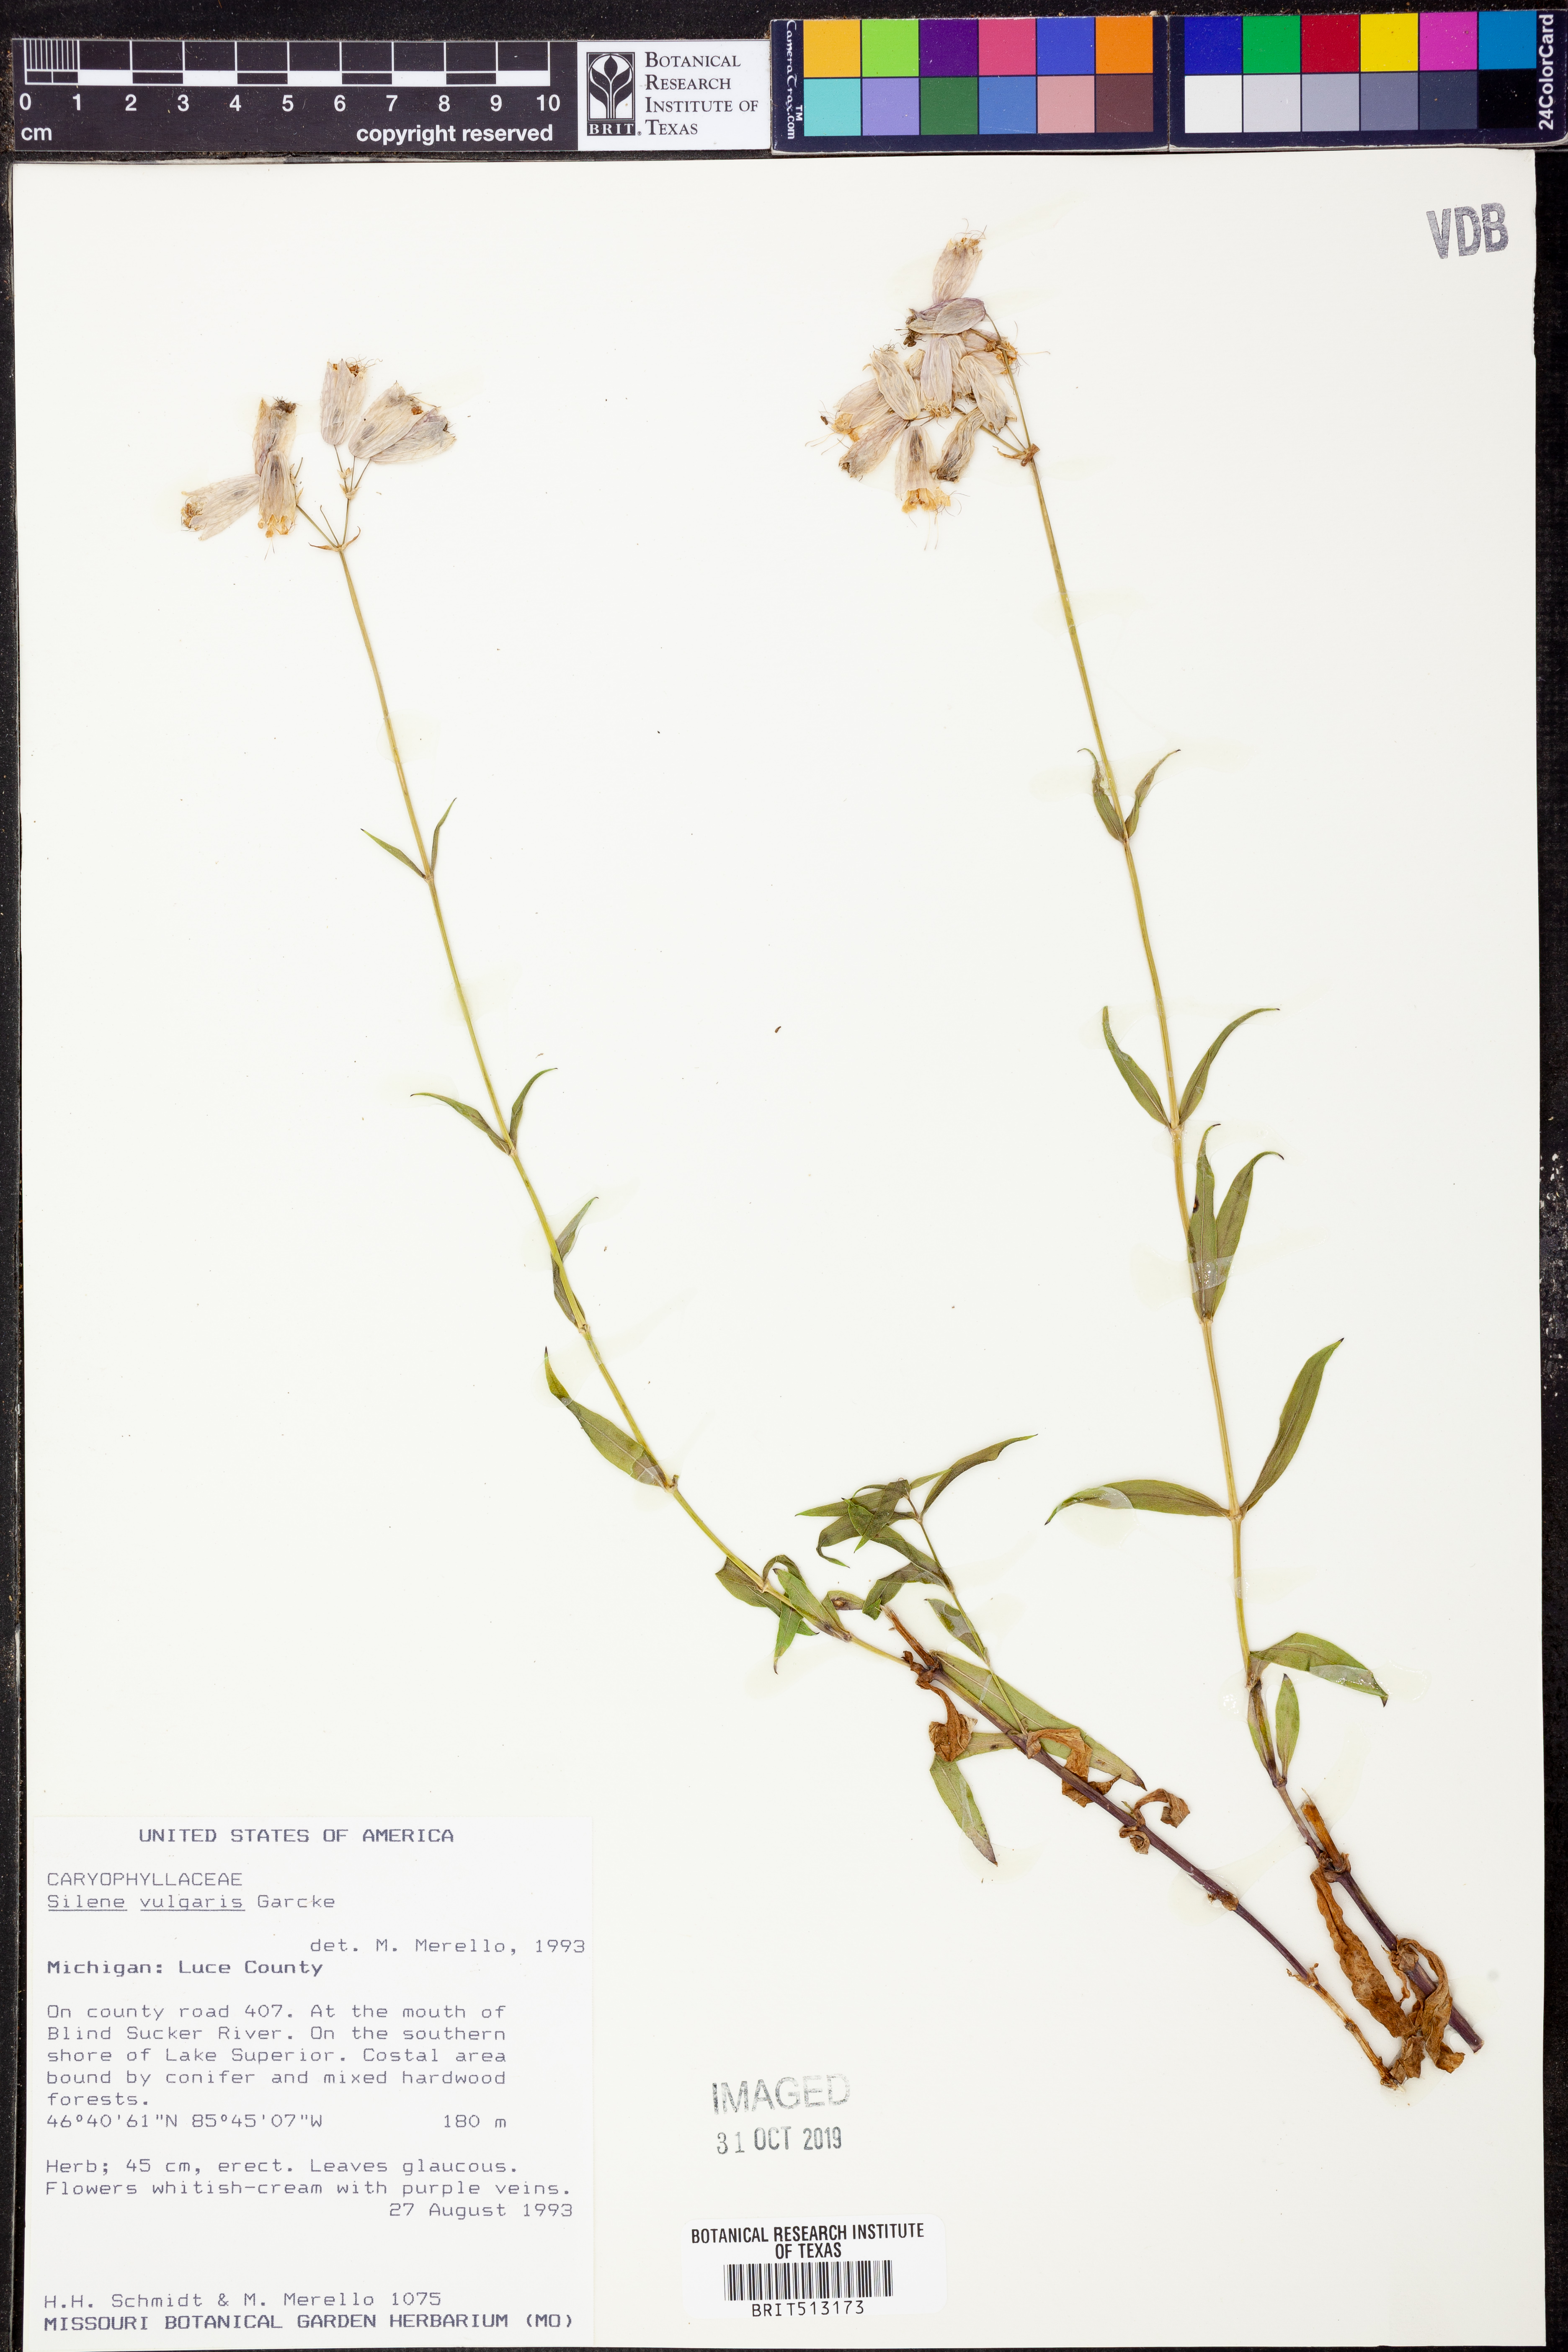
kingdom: Plantae
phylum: Tracheophyta
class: Magnoliopsida
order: Caryophyllales
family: Caryophyllaceae
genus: Silene
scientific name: Silene vulgaris
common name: Bladder campion
